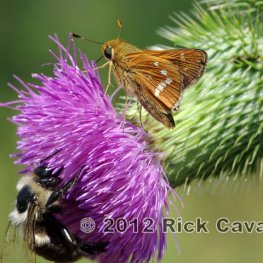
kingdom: Animalia
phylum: Arthropoda
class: Insecta
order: Lepidoptera
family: Hesperiidae
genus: Hesperia
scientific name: Hesperia leonardus
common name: Leonard's Skipper
